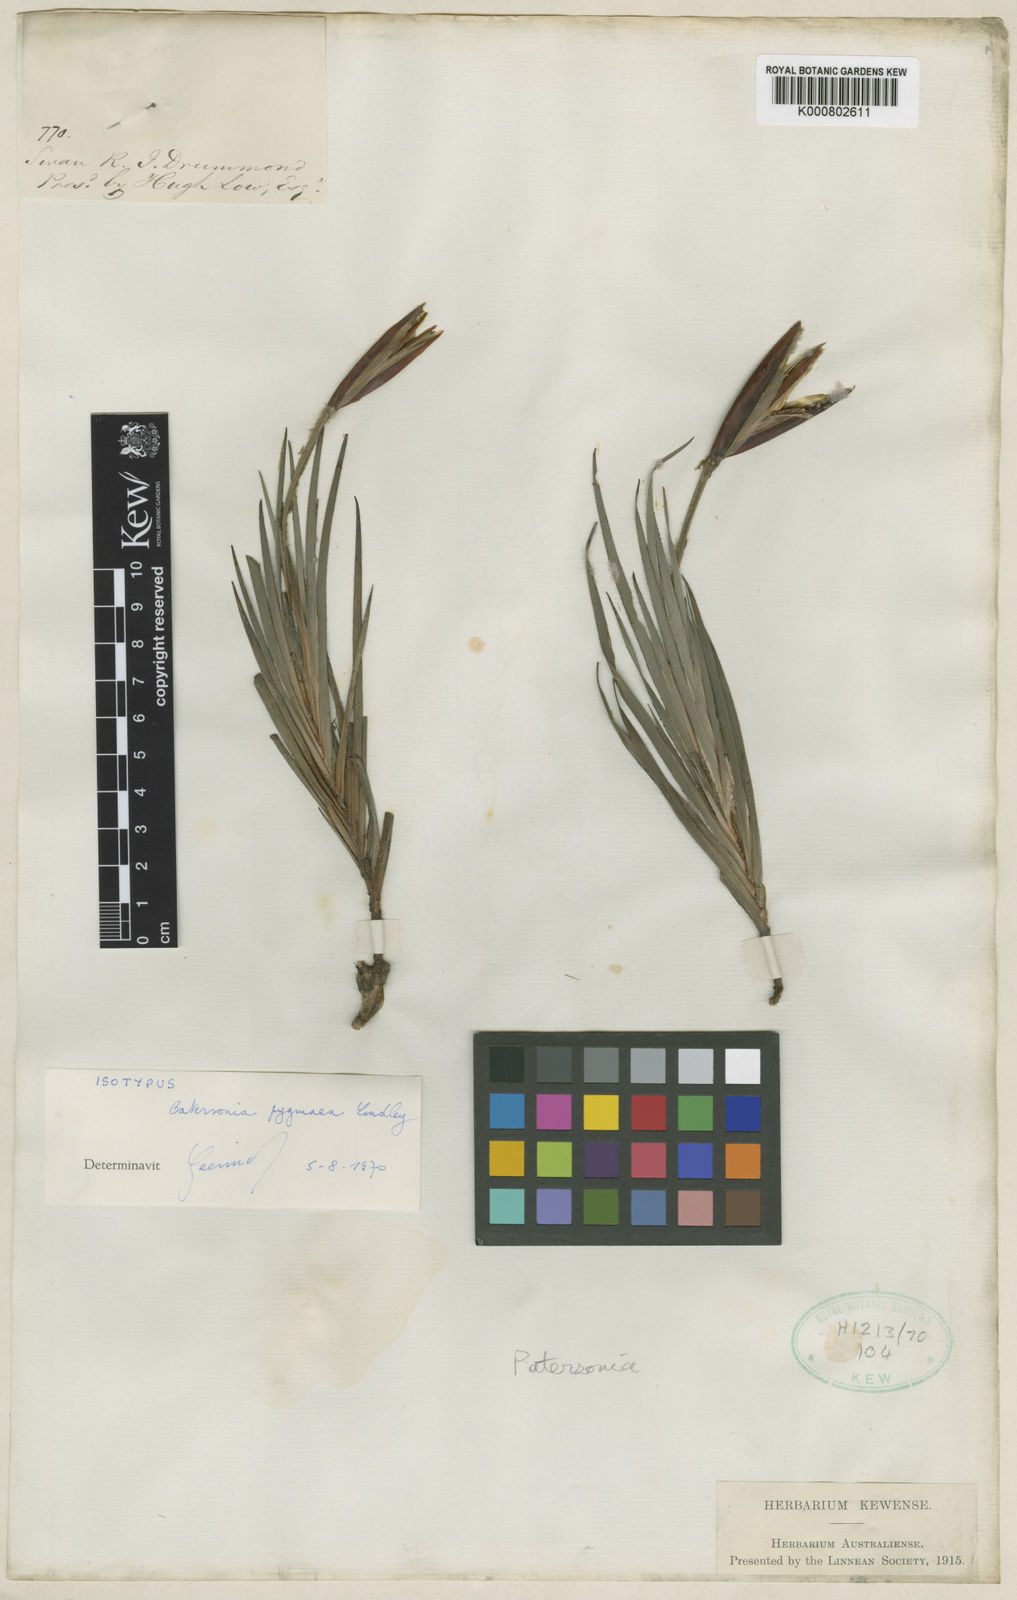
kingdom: Plantae
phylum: Tracheophyta
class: Liliopsida
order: Asparagales
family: Iridaceae
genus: Patersonia
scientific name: Patersonia pygmaea
